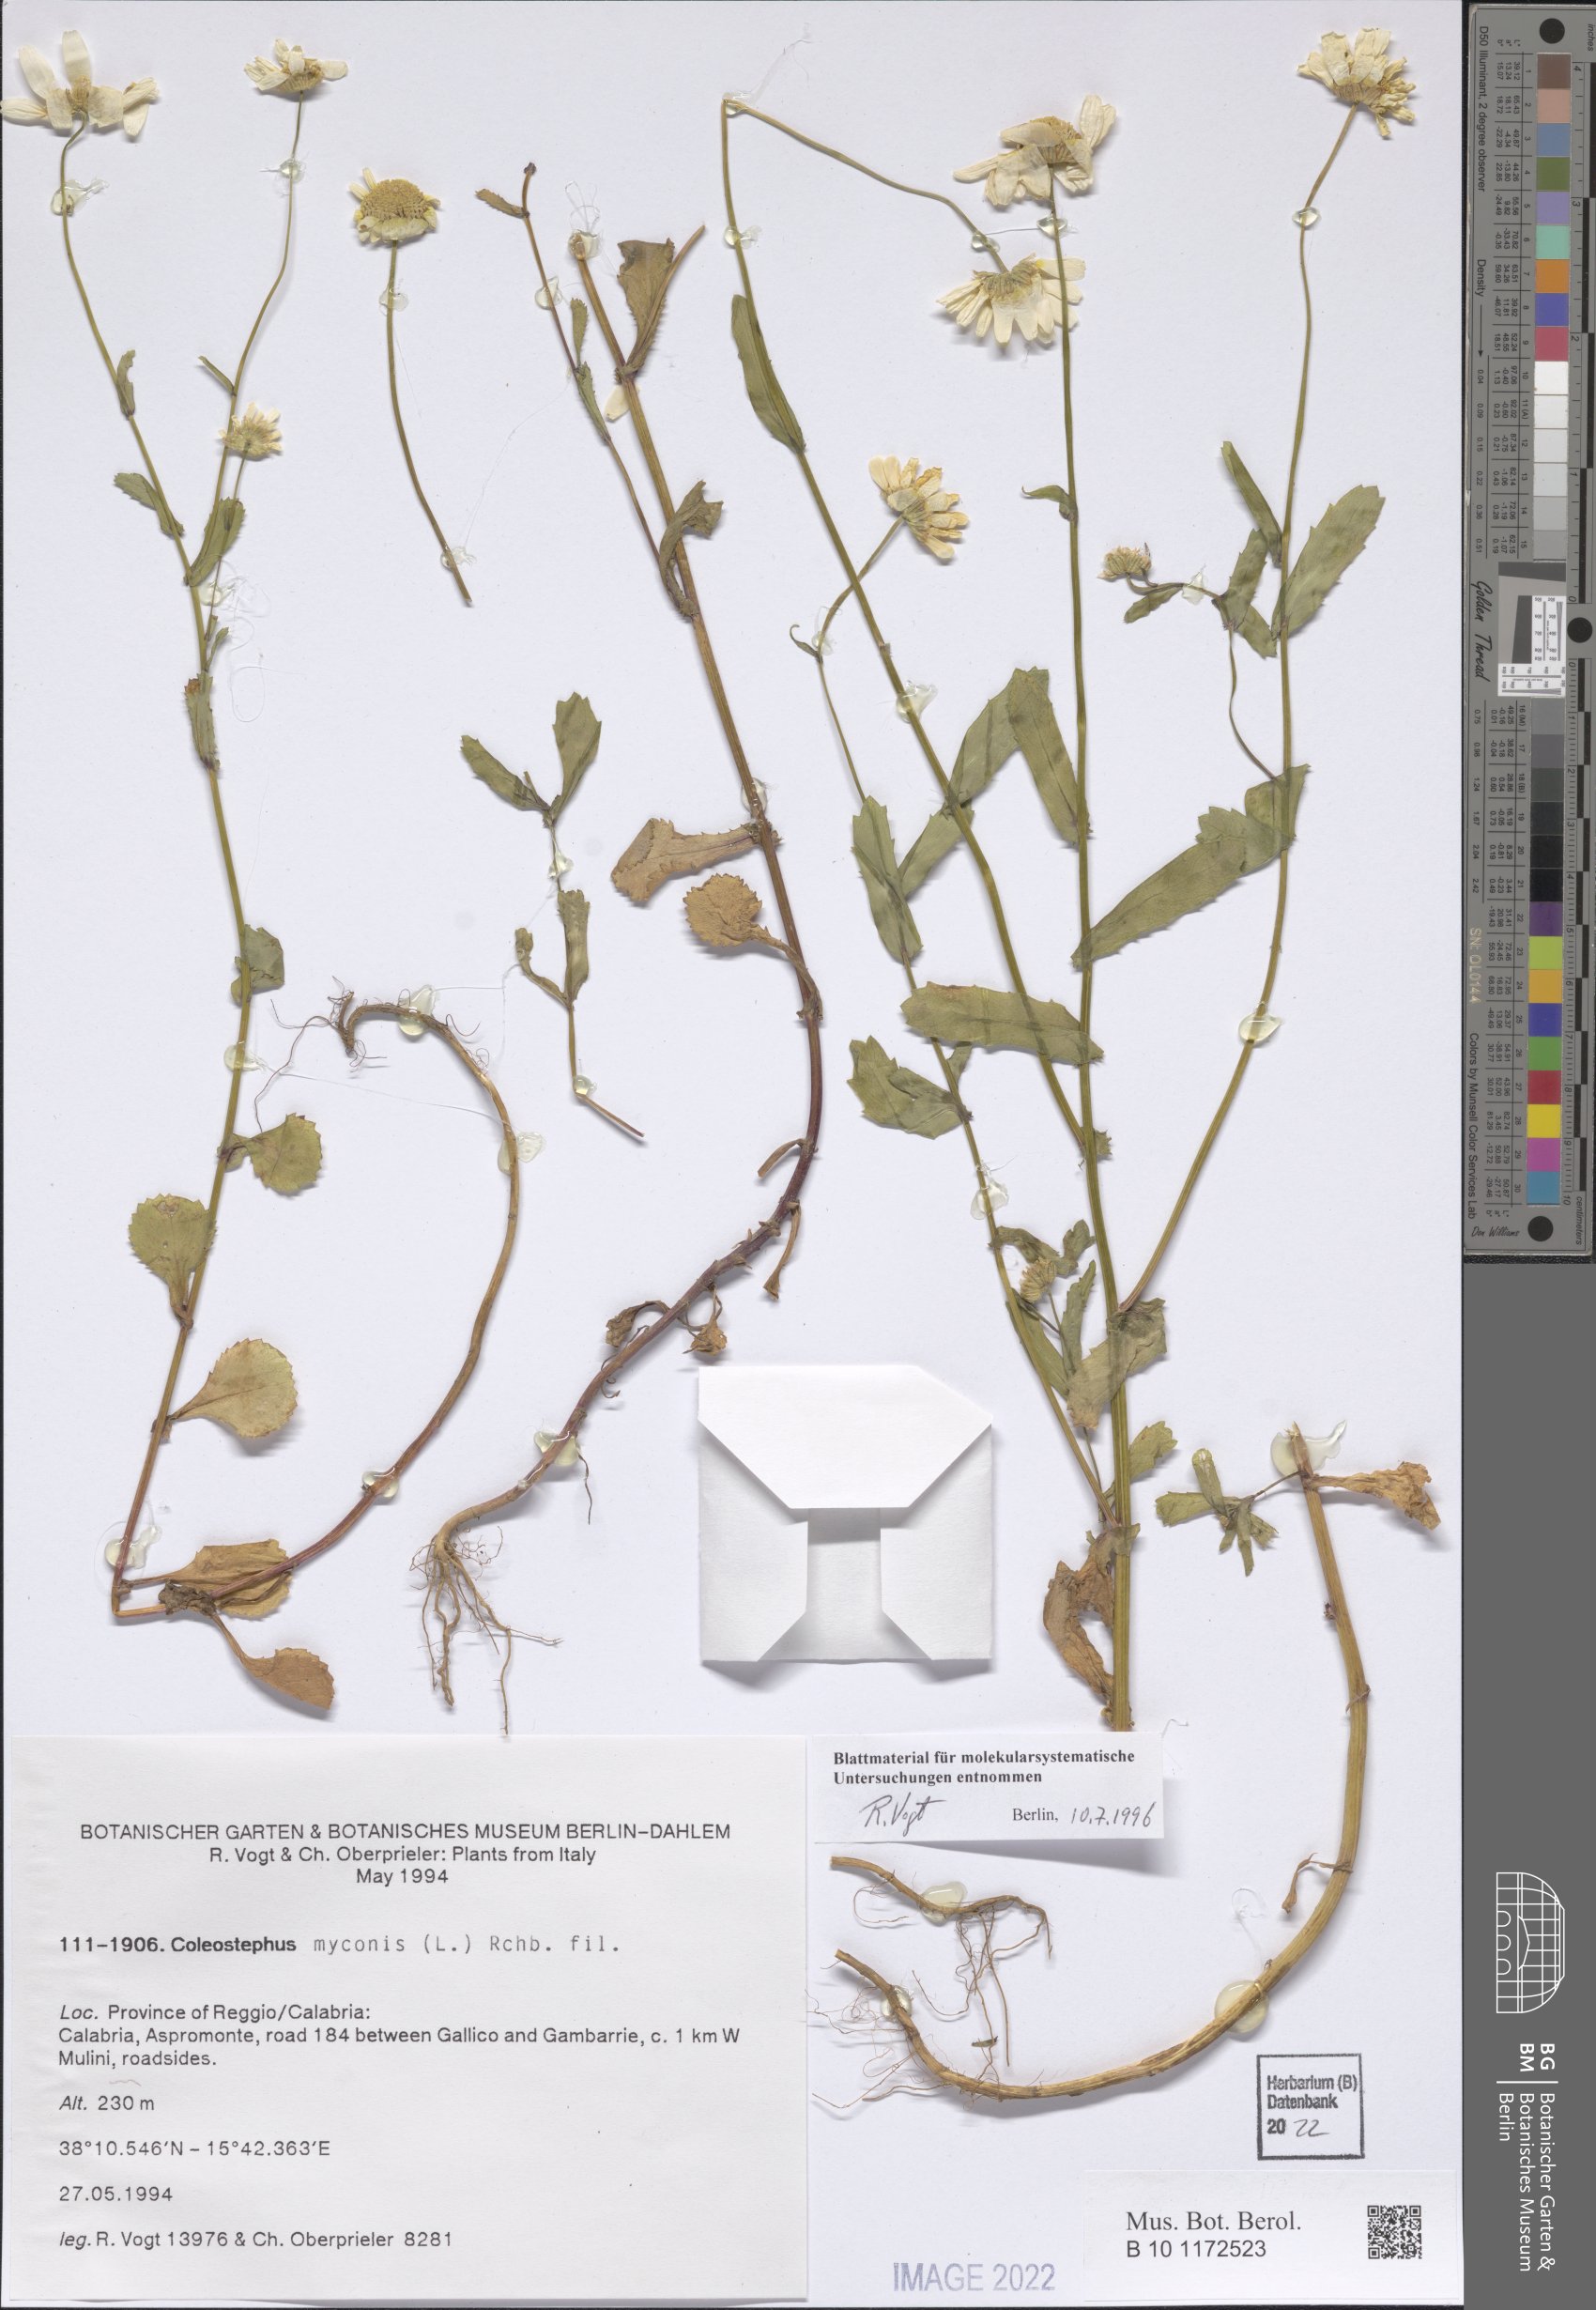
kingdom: Plantae
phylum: Tracheophyta
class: Magnoliopsida
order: Asterales
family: Asteraceae
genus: Coleostephus
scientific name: Coleostephus myconis
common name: Mediterranean marigold
